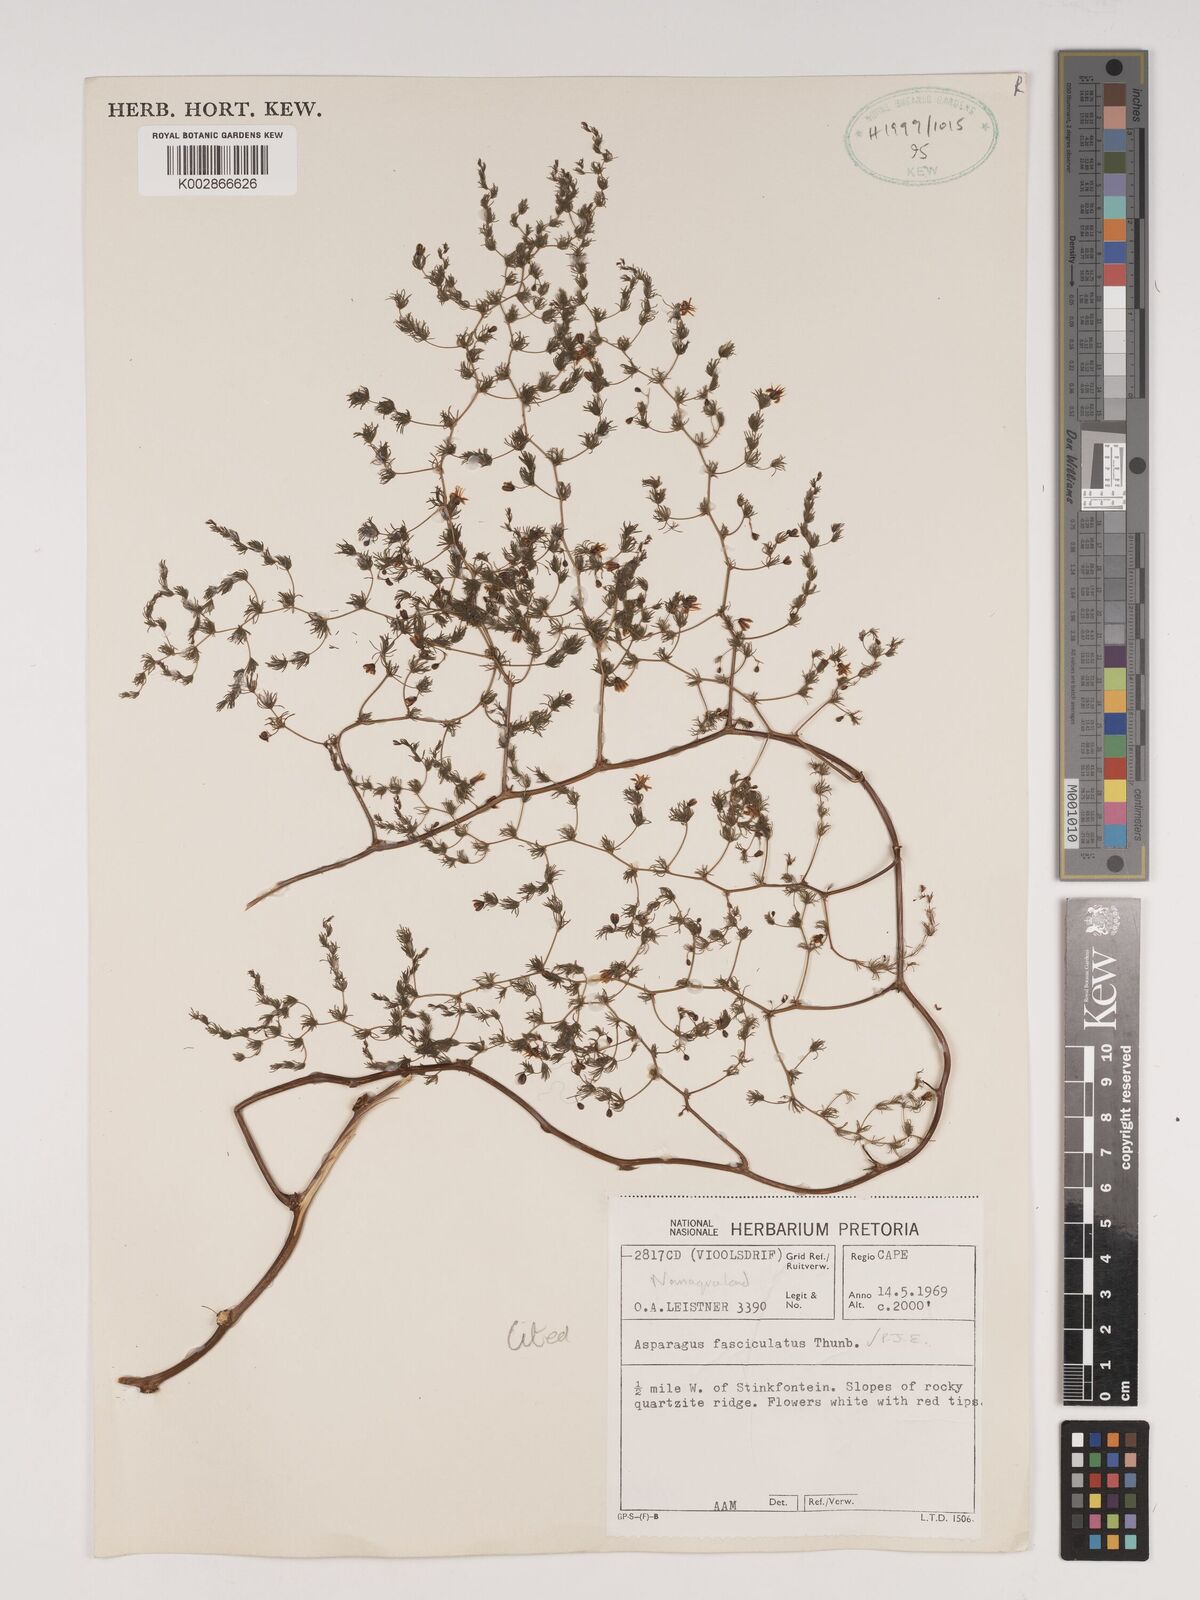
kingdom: Plantae
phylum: Tracheophyta
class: Liliopsida
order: Asparagales
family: Asparagaceae
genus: Asparagus
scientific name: Asparagus fasciculatus
